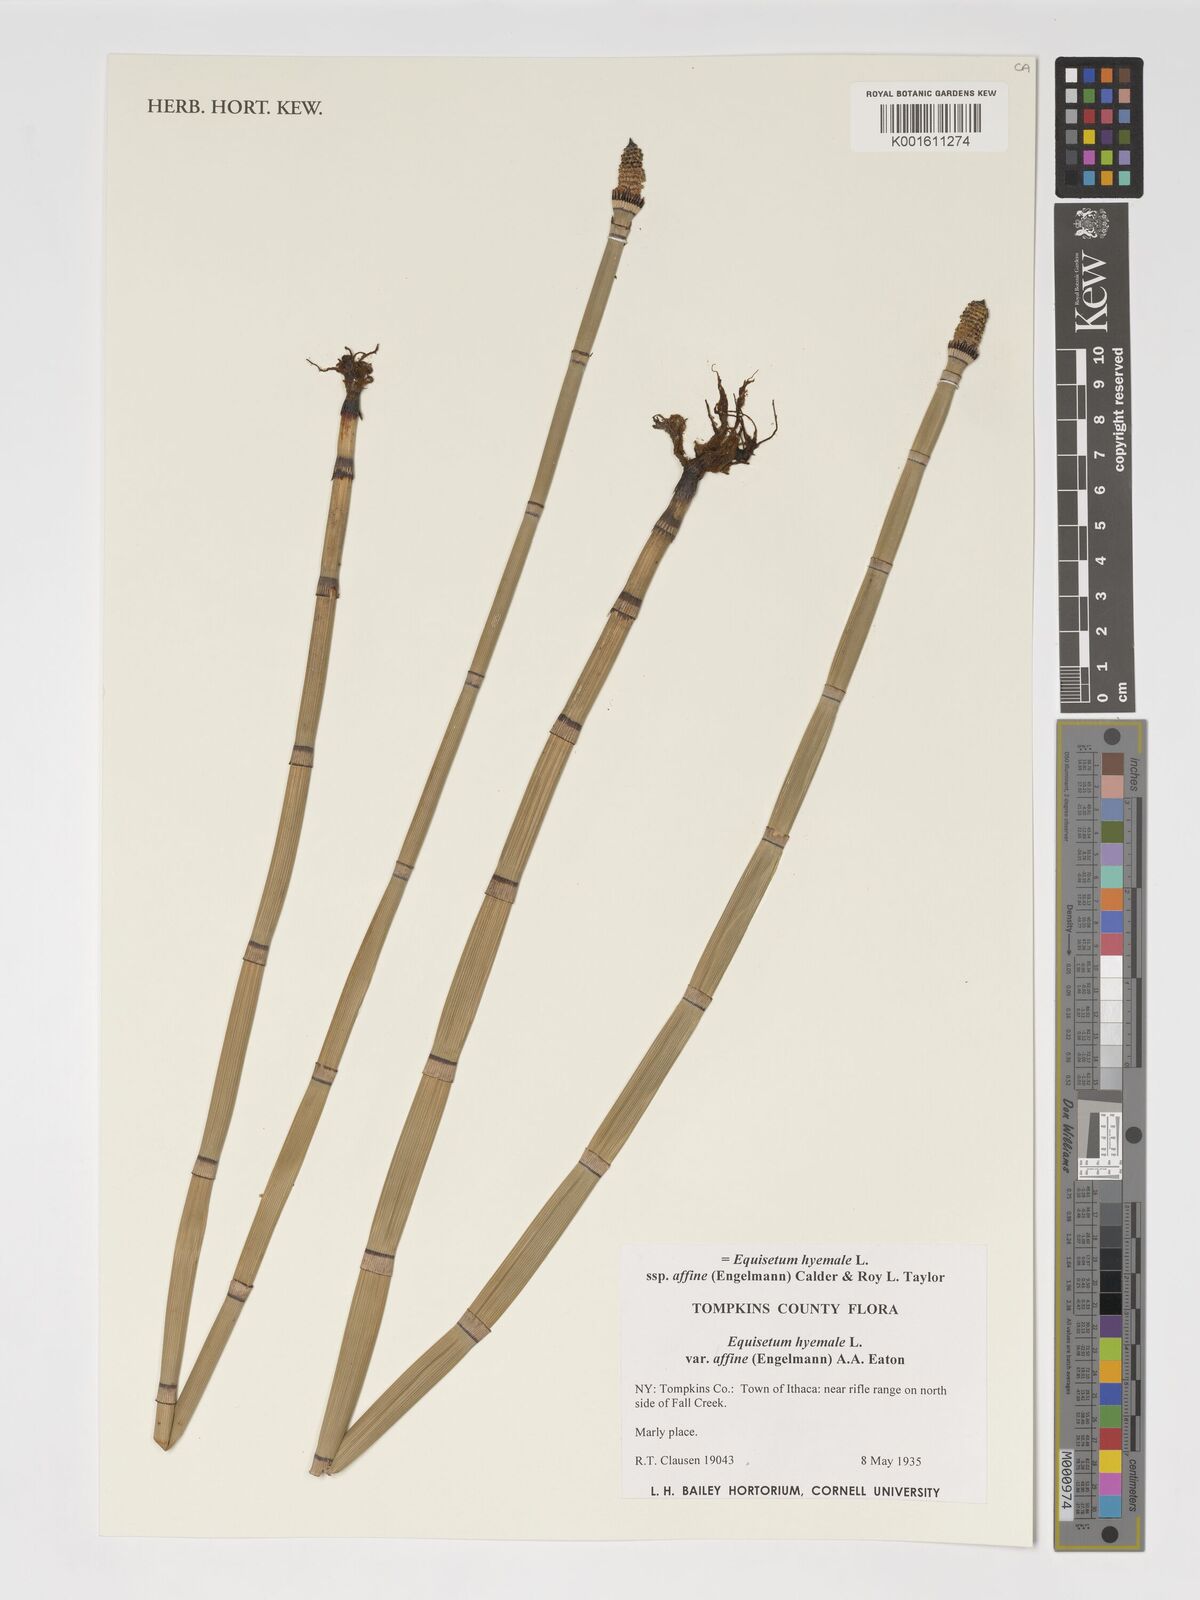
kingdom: Plantae
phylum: Tracheophyta
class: Polypodiopsida
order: Equisetales
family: Equisetaceae
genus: Equisetum
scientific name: Equisetum praealtum
